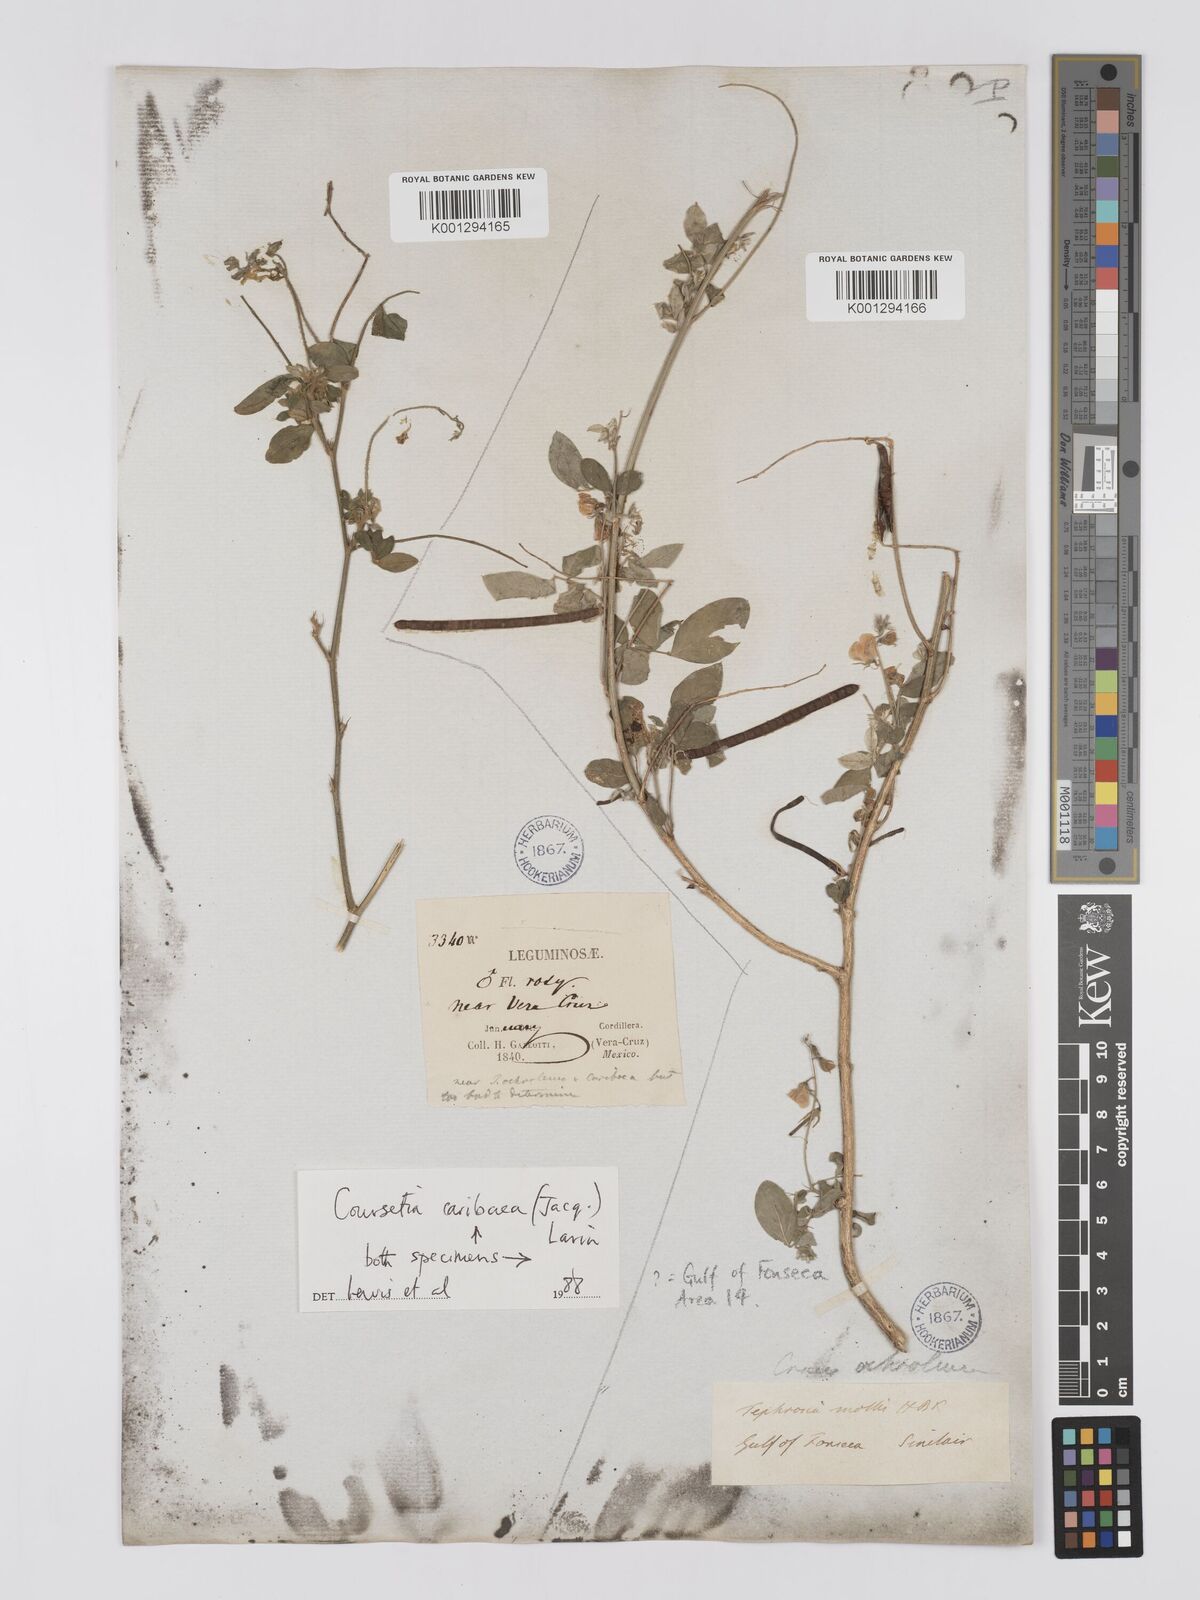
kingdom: Plantae
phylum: Tracheophyta
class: Magnoliopsida
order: Fabales
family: Fabaceae
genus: Coursetia
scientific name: Coursetia caribaea
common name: Anil falso
